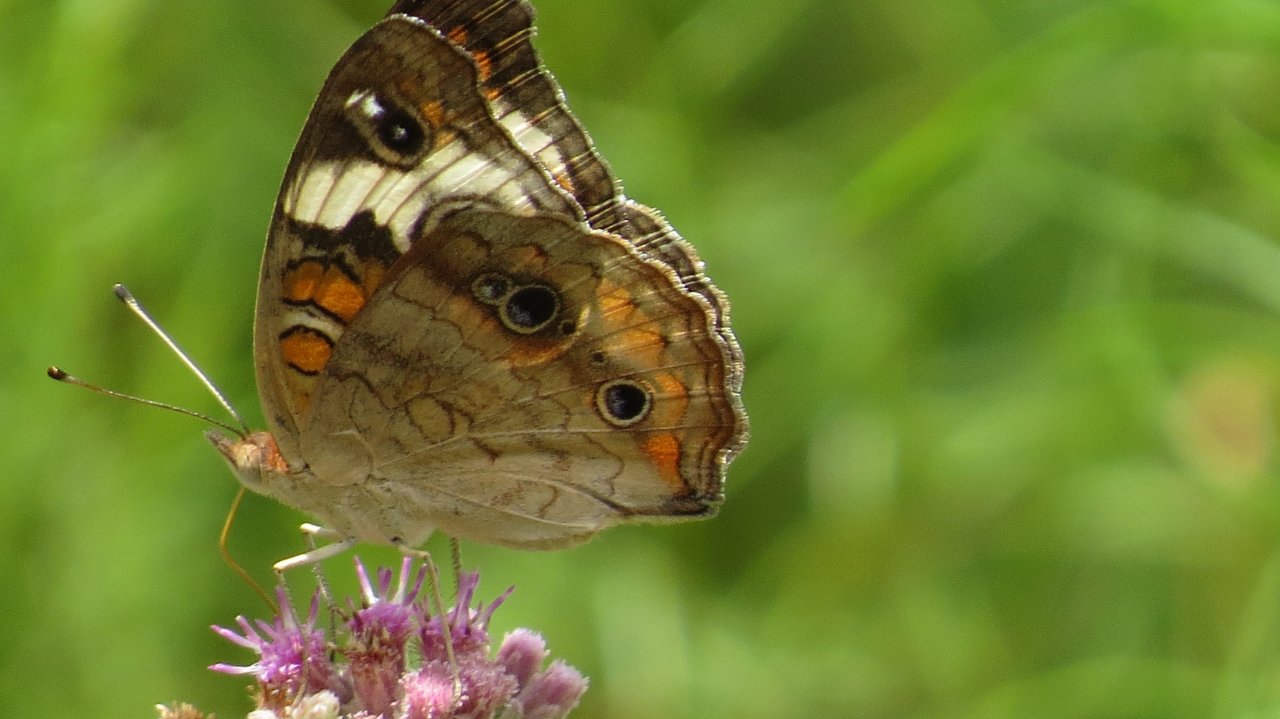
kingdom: Animalia
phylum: Arthropoda
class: Insecta
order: Lepidoptera
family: Nymphalidae
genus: Junonia
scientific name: Junonia coenia
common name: Common Buckeye
